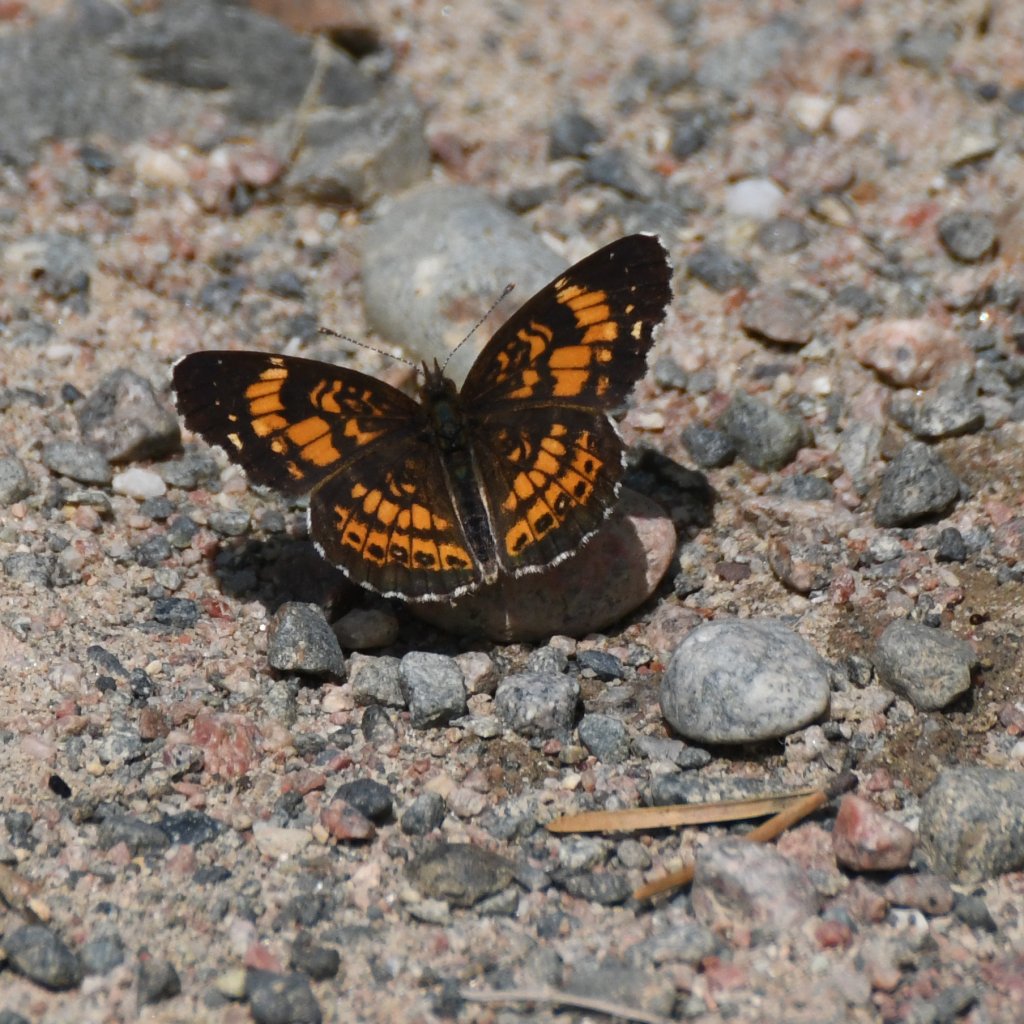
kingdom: Animalia
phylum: Arthropoda
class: Insecta
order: Lepidoptera
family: Nymphalidae
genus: Chlosyne
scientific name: Chlosyne nycteis
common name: Silvery Checkerspot
